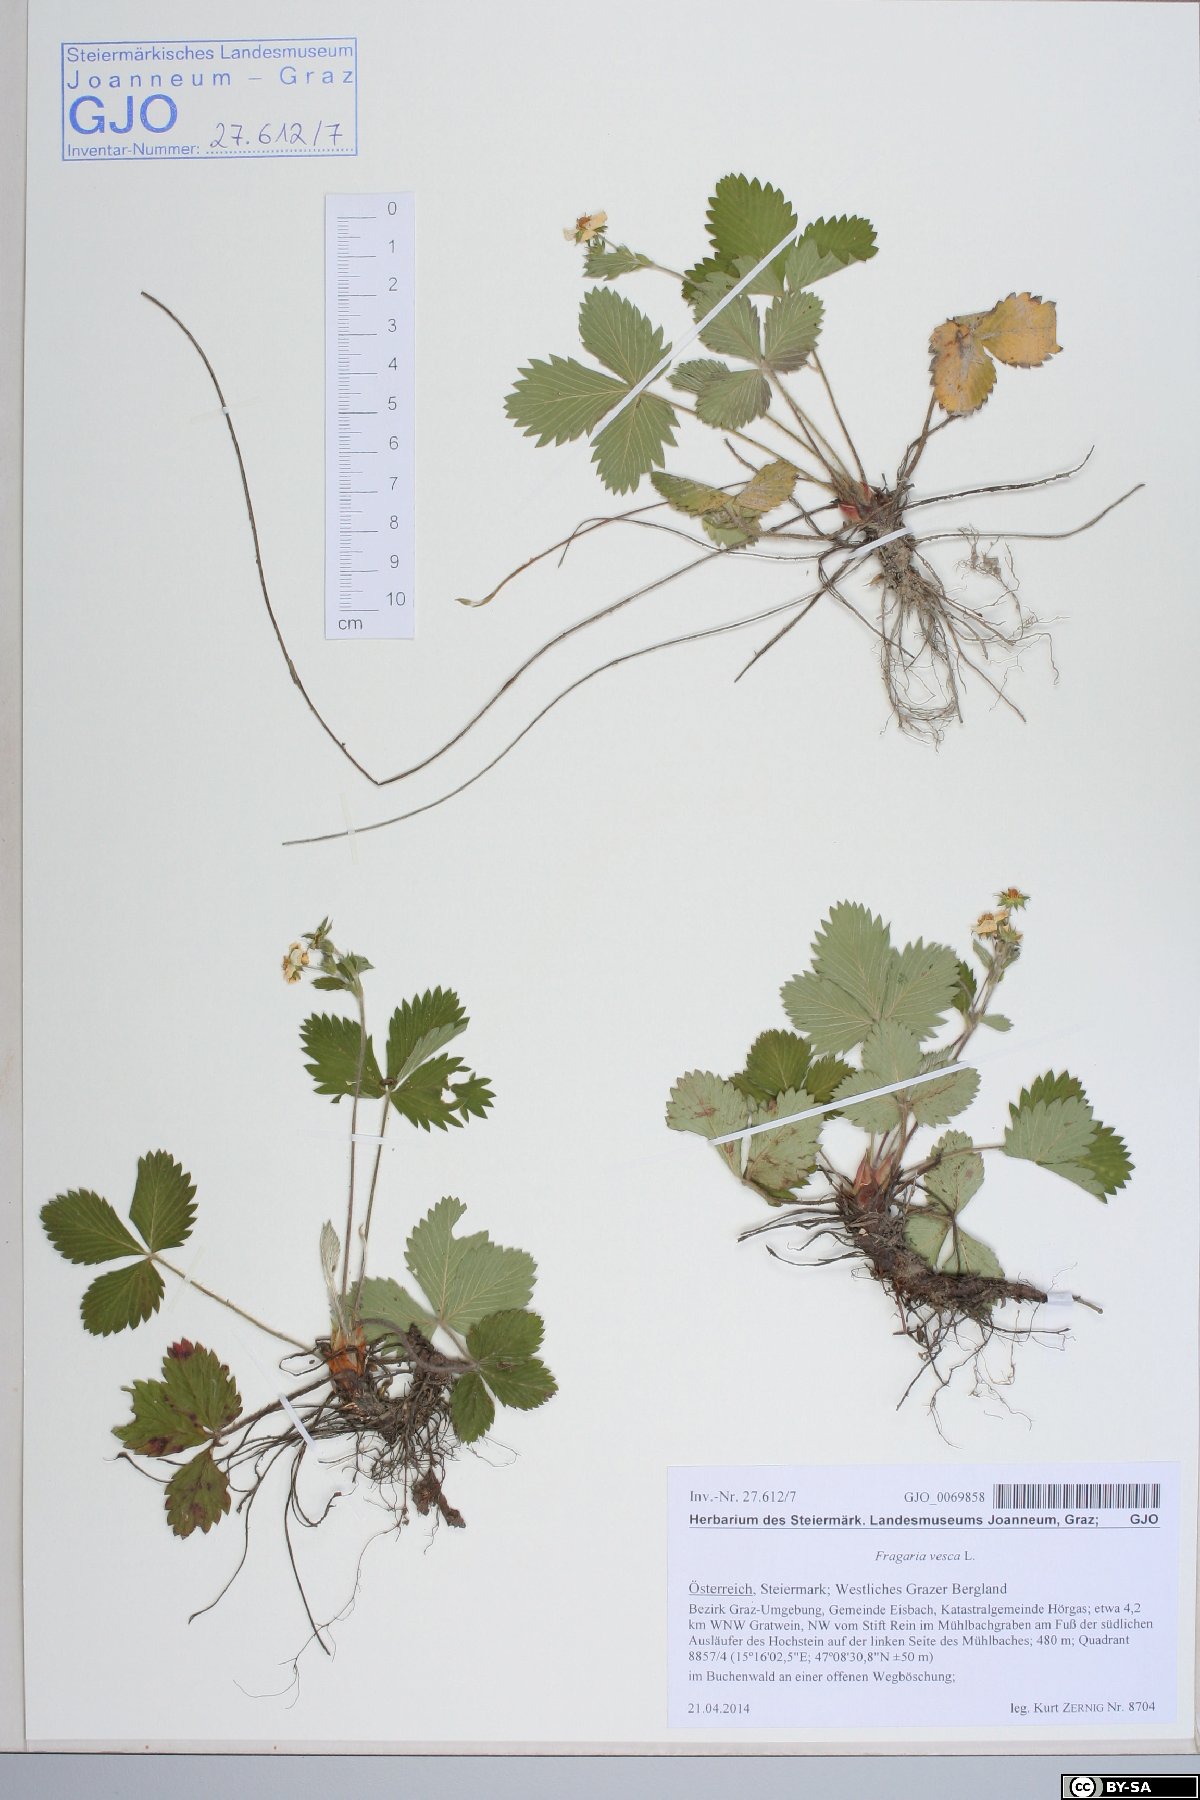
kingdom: Plantae
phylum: Tracheophyta
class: Magnoliopsida
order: Rosales
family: Rosaceae
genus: Fragaria
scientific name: Fragaria vesca
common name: Wild strawberry
